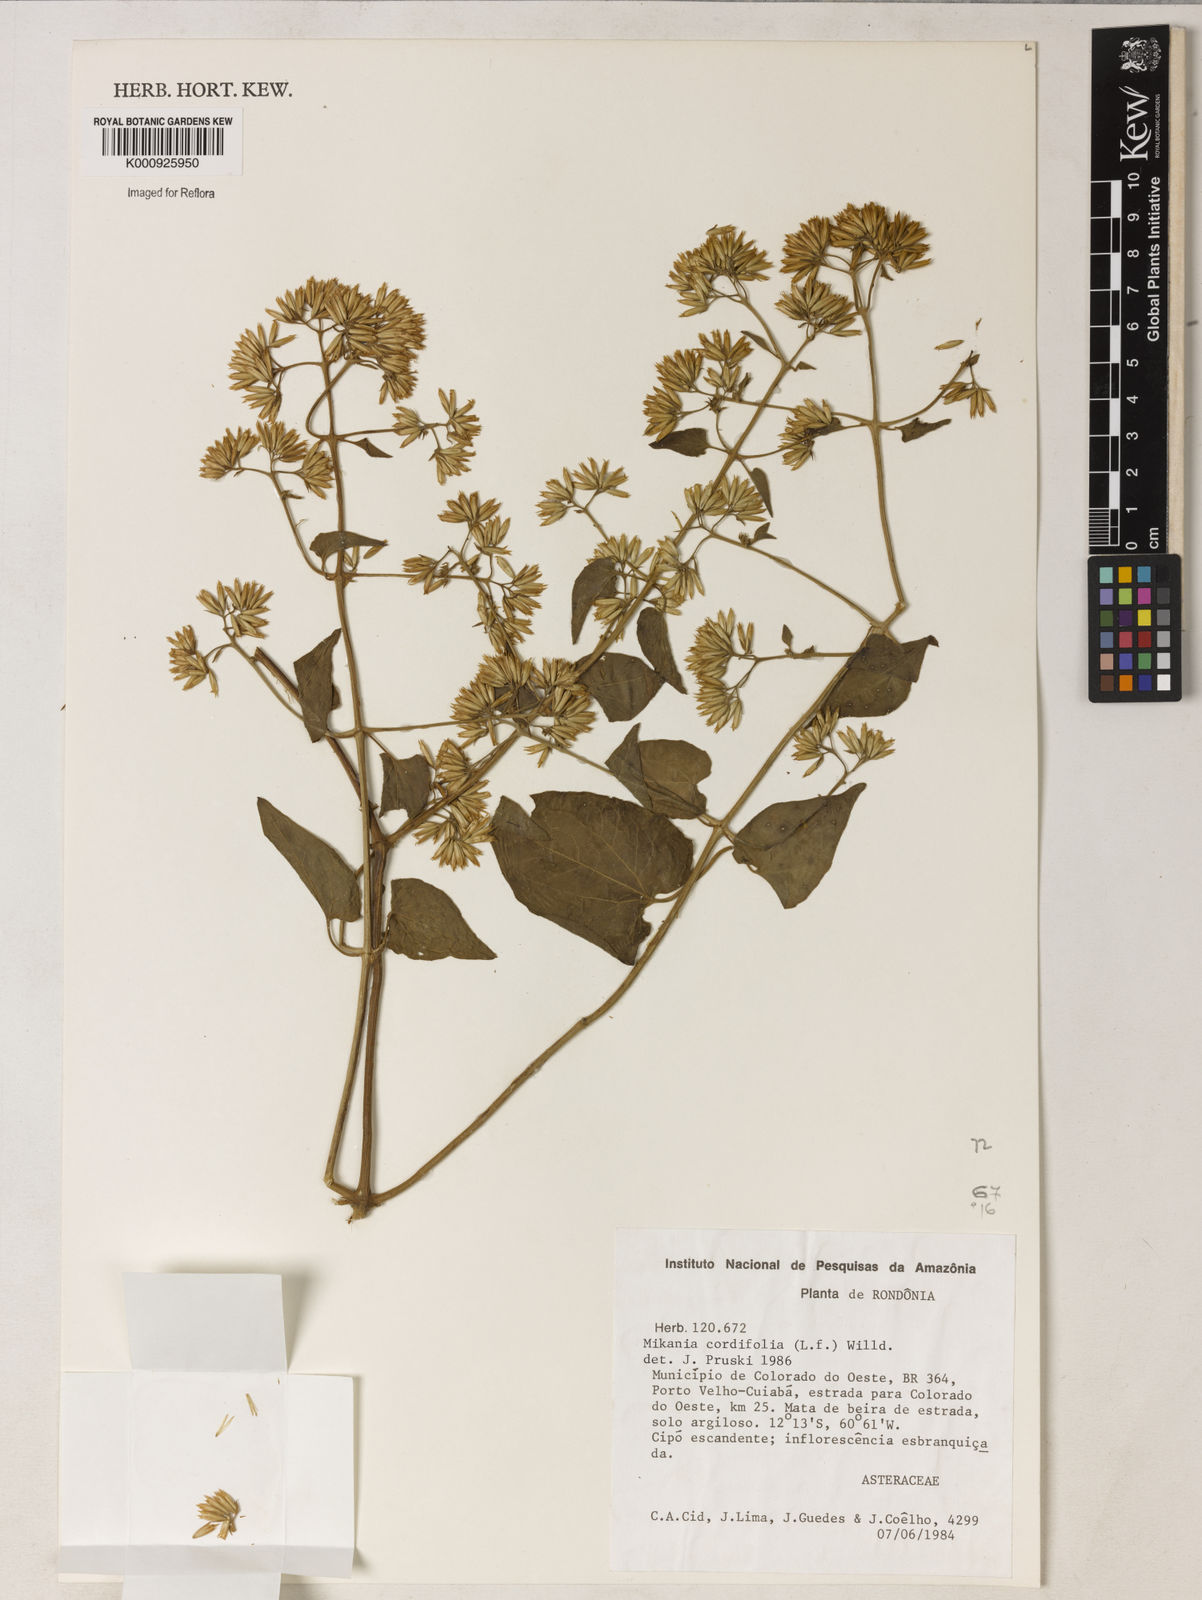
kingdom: Plantae
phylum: Tracheophyta
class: Magnoliopsida
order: Asterales
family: Asteraceae
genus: Mikania
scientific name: Mikania congesta
